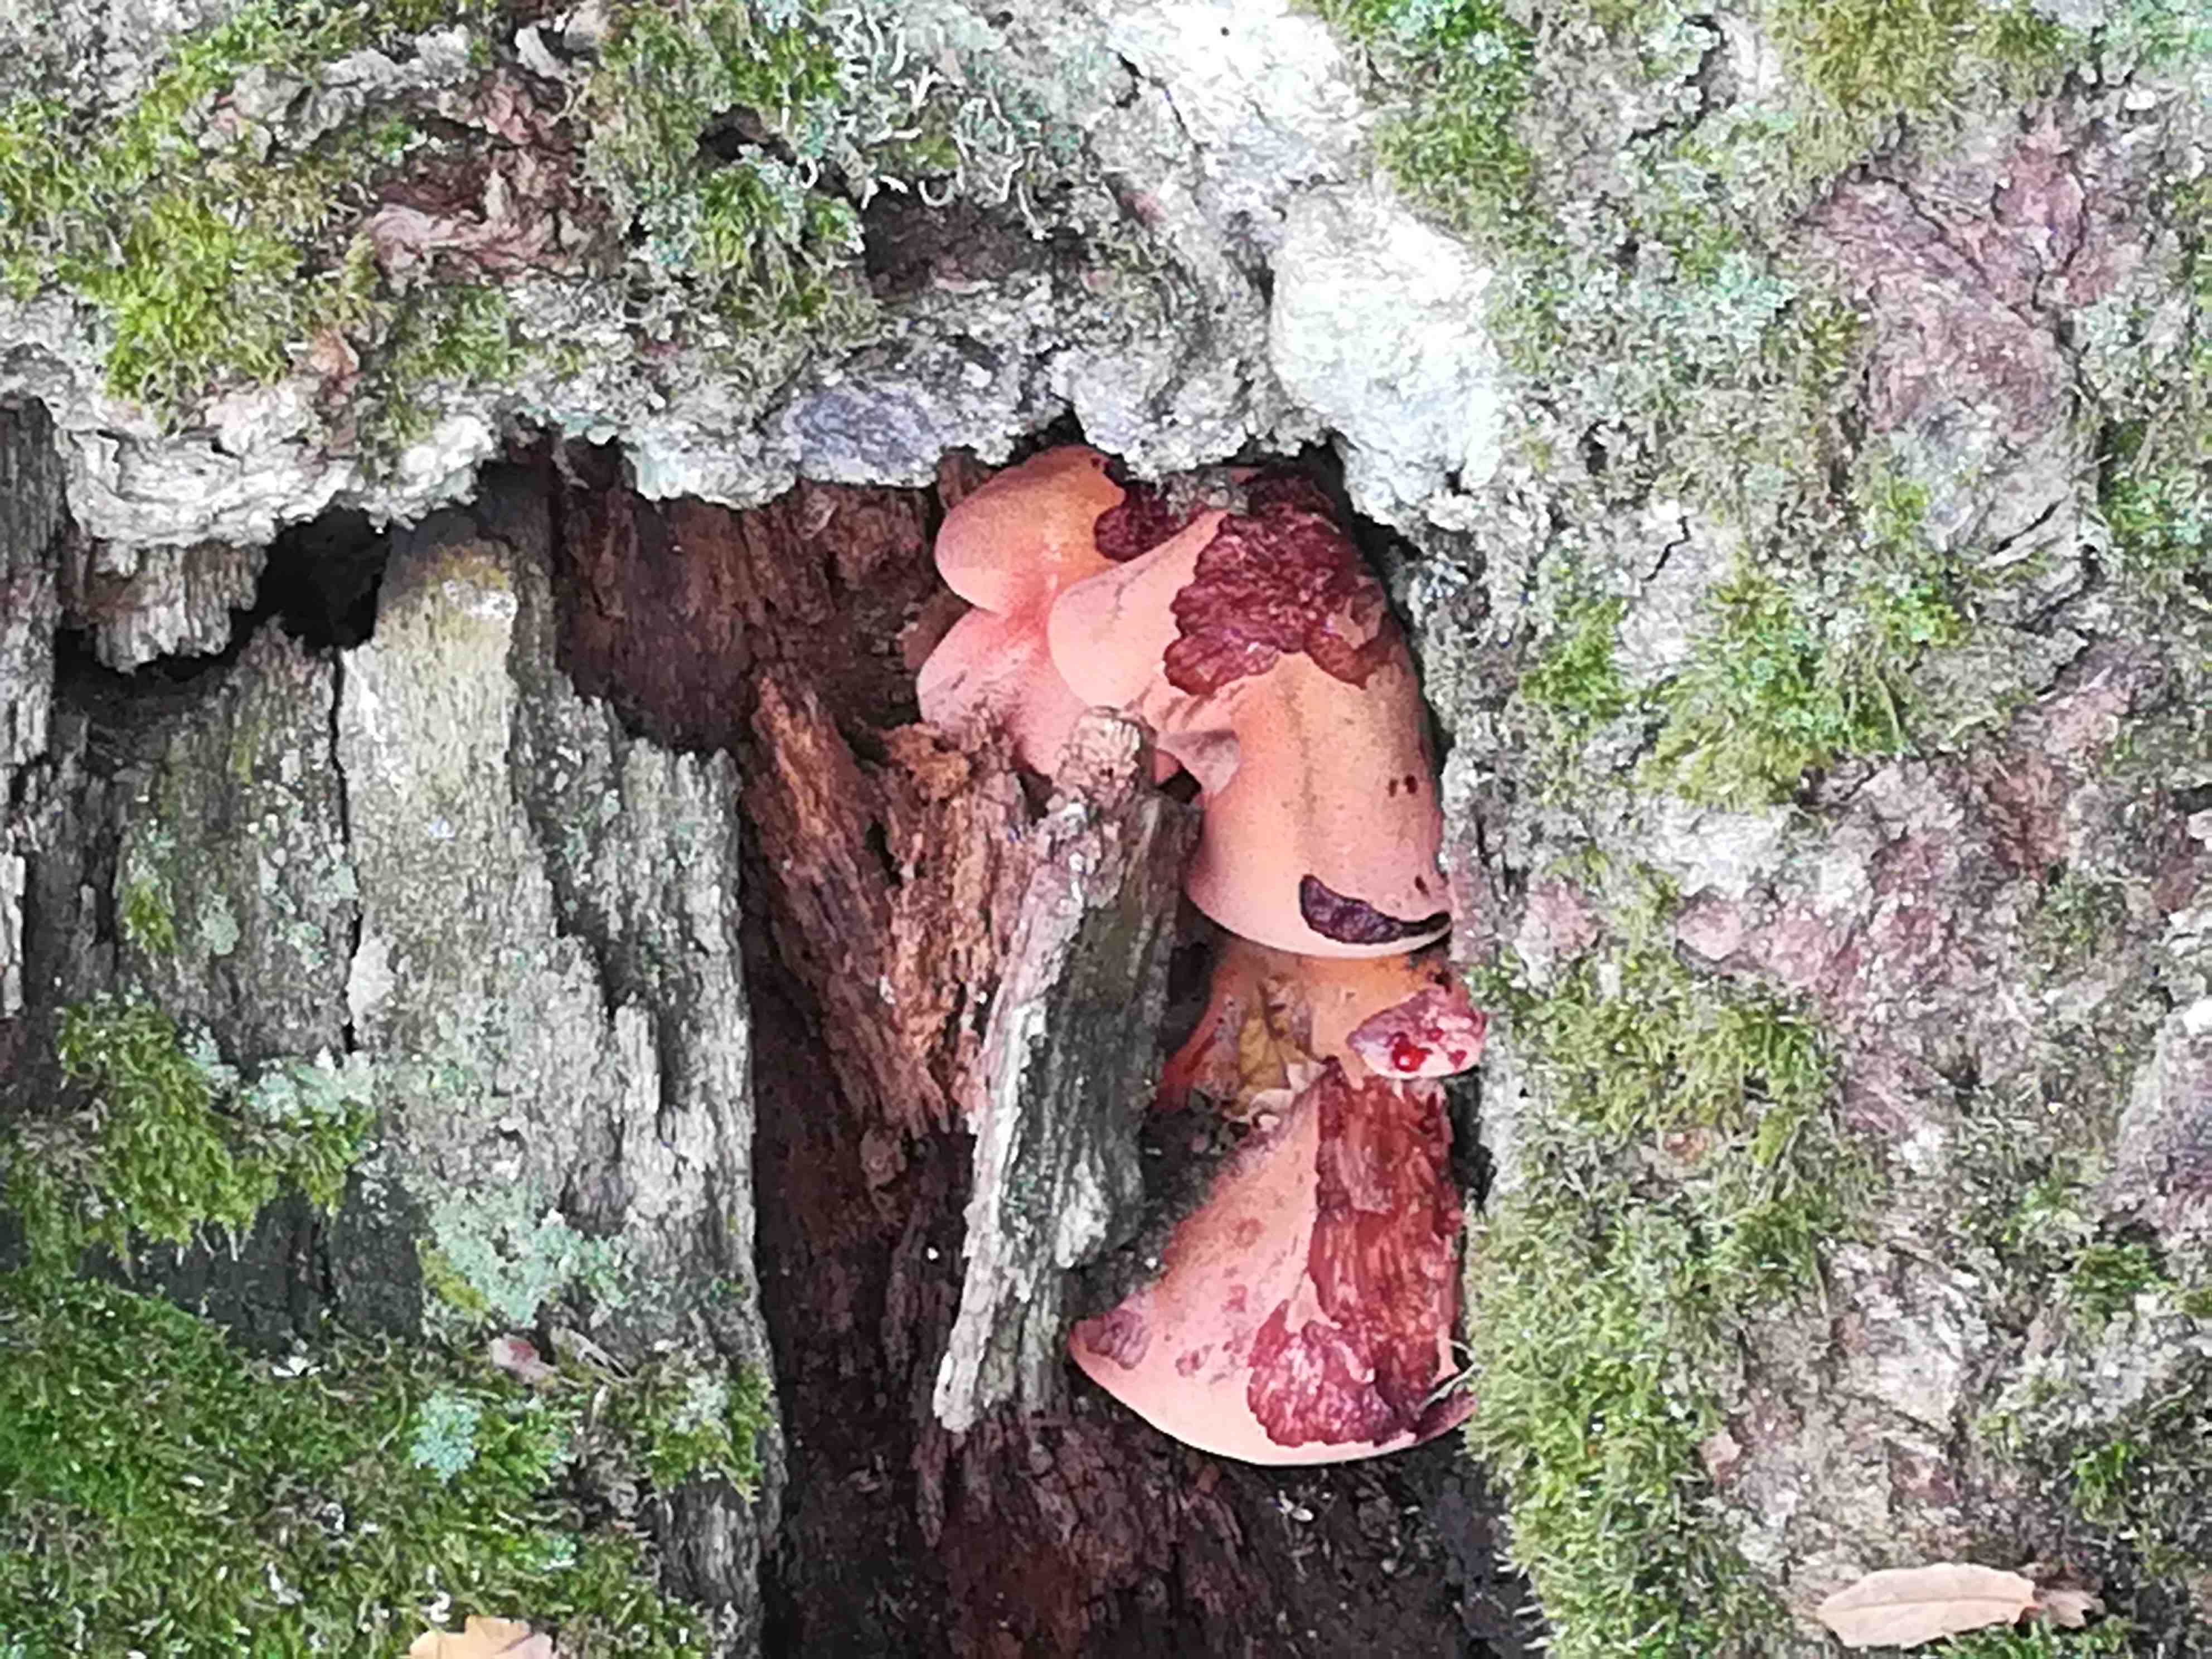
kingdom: Fungi
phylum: Basidiomycota
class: Agaricomycetes
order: Agaricales
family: Fistulinaceae
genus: Fistulina
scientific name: Fistulina hepatica
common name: oksetunge
